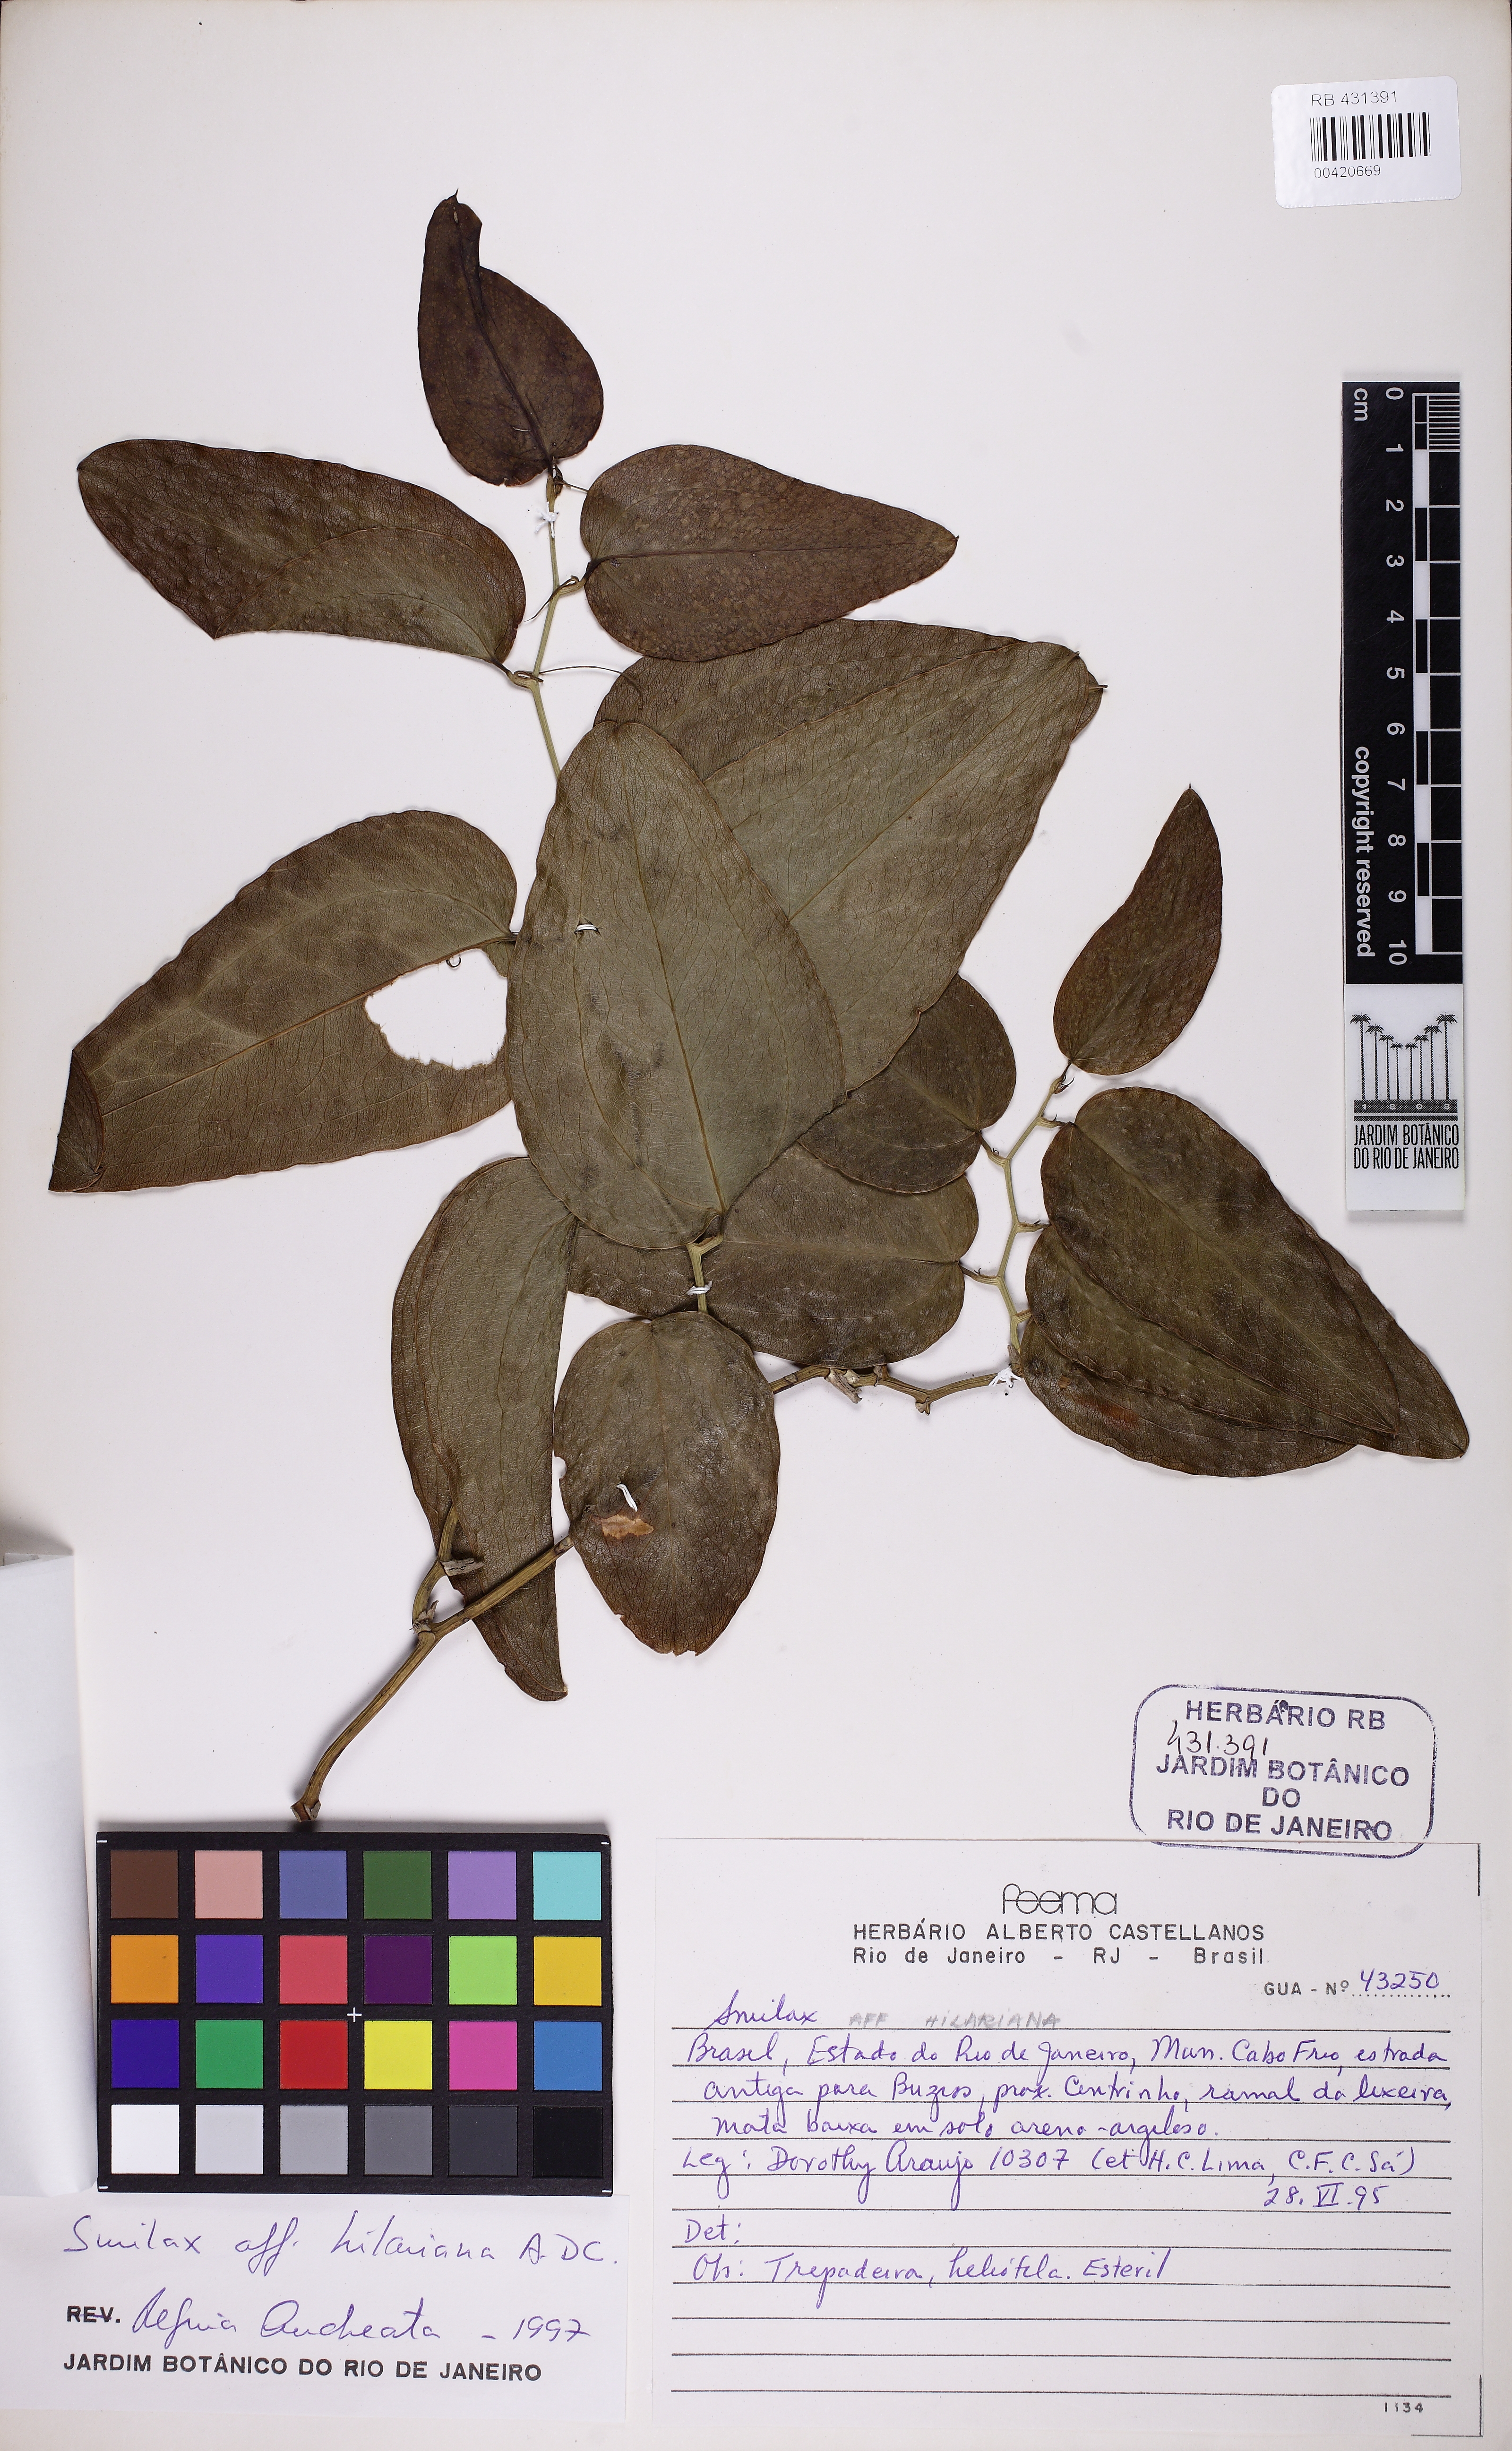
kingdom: Plantae
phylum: Tracheophyta
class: Liliopsida
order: Liliales
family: Smilacaceae
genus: Smilax
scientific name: Smilax hilariana
